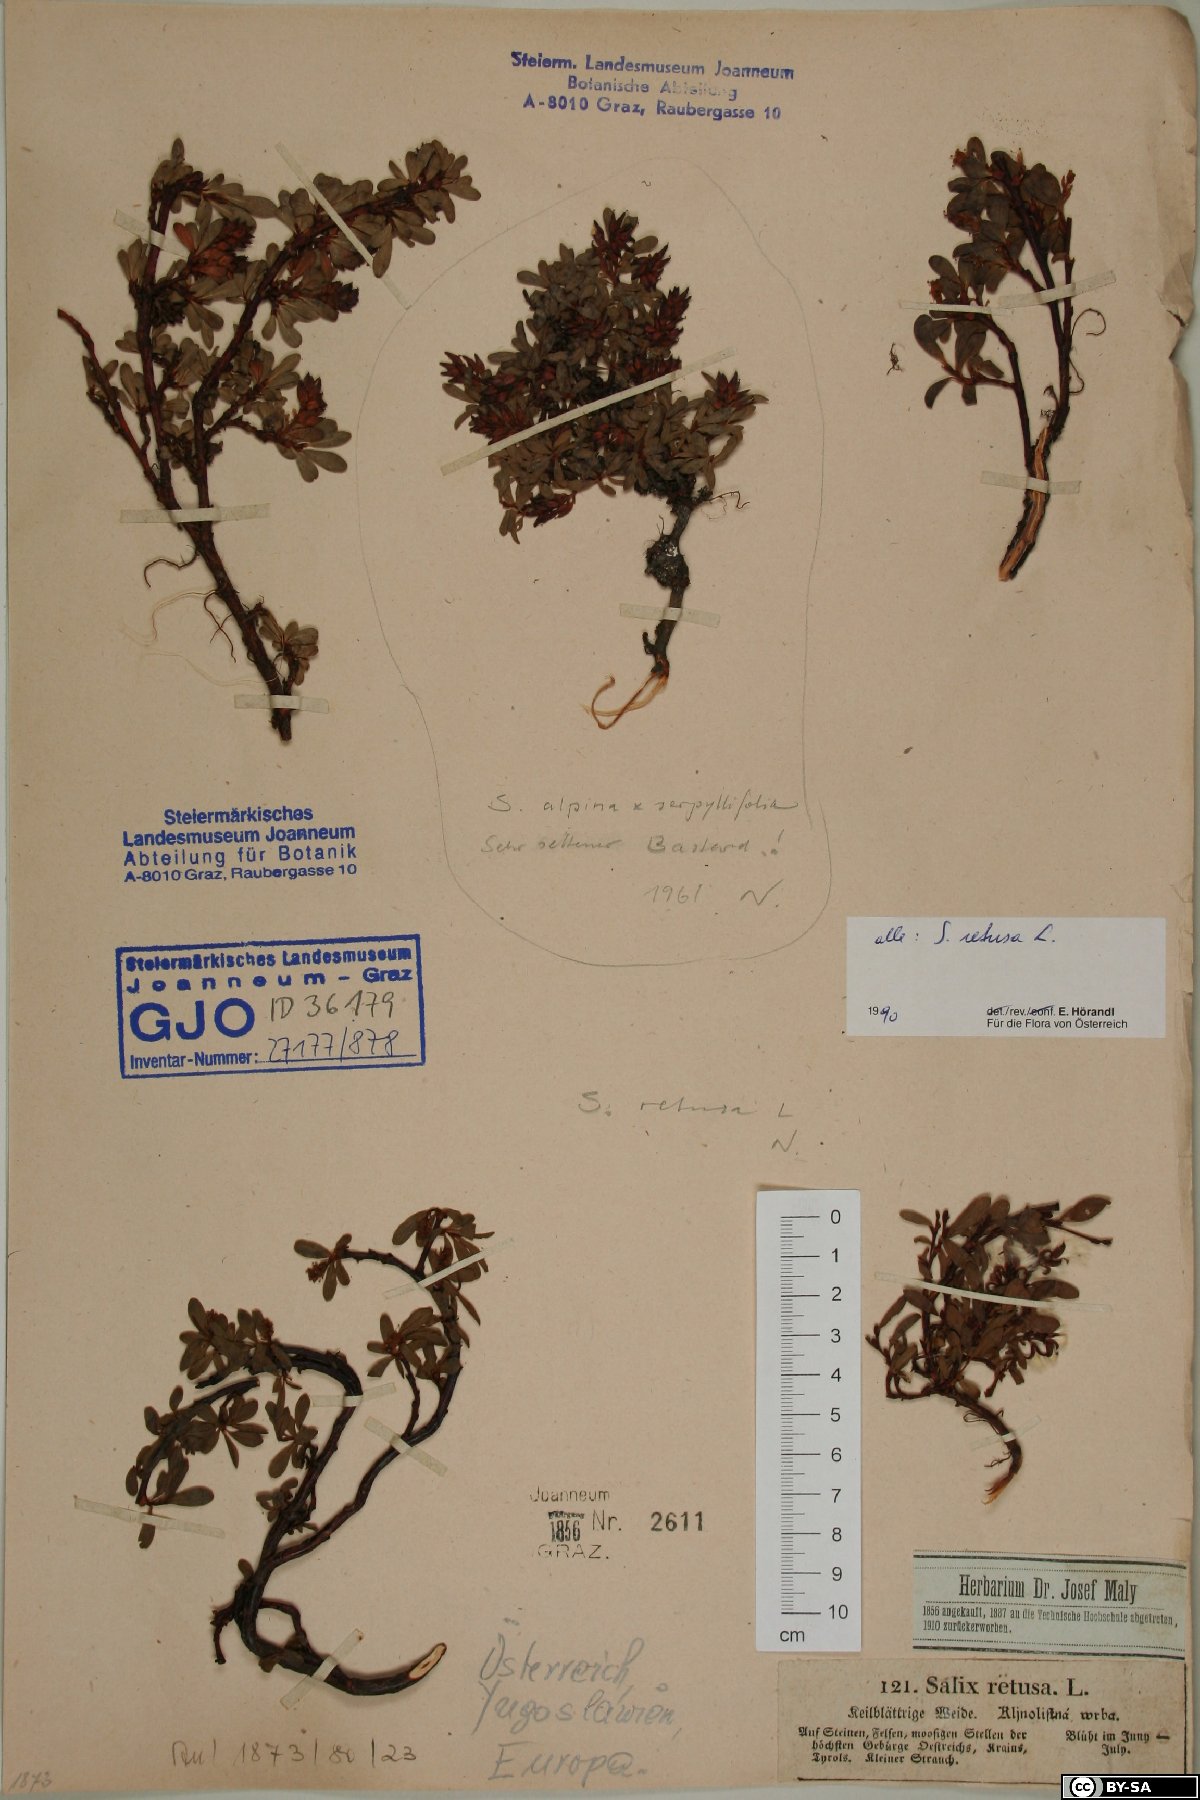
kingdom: Plantae
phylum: Tracheophyta
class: Magnoliopsida
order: Malpighiales
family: Salicaceae
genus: Salix
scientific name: Salix retusa
